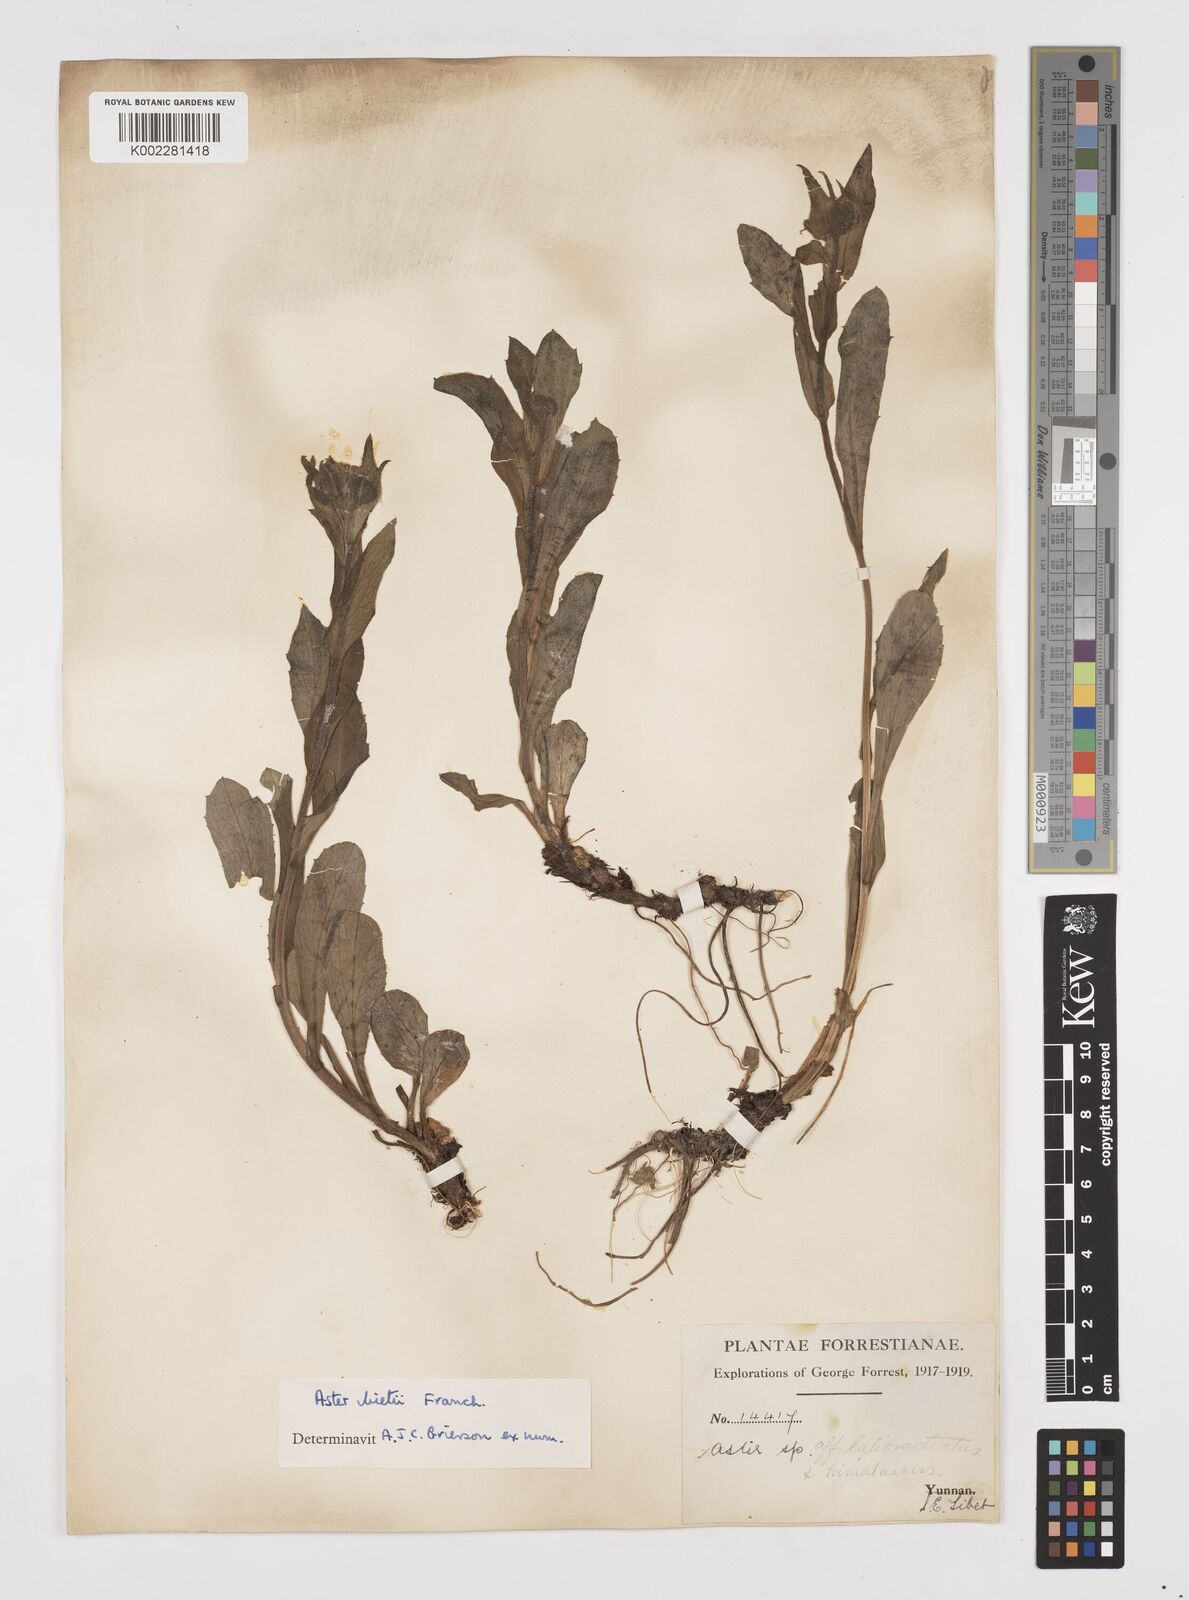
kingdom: Plantae
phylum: Tracheophyta
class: Magnoliopsida
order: Asterales
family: Asteraceae
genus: Tibetiodes
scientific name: Tibetiodes bietii
